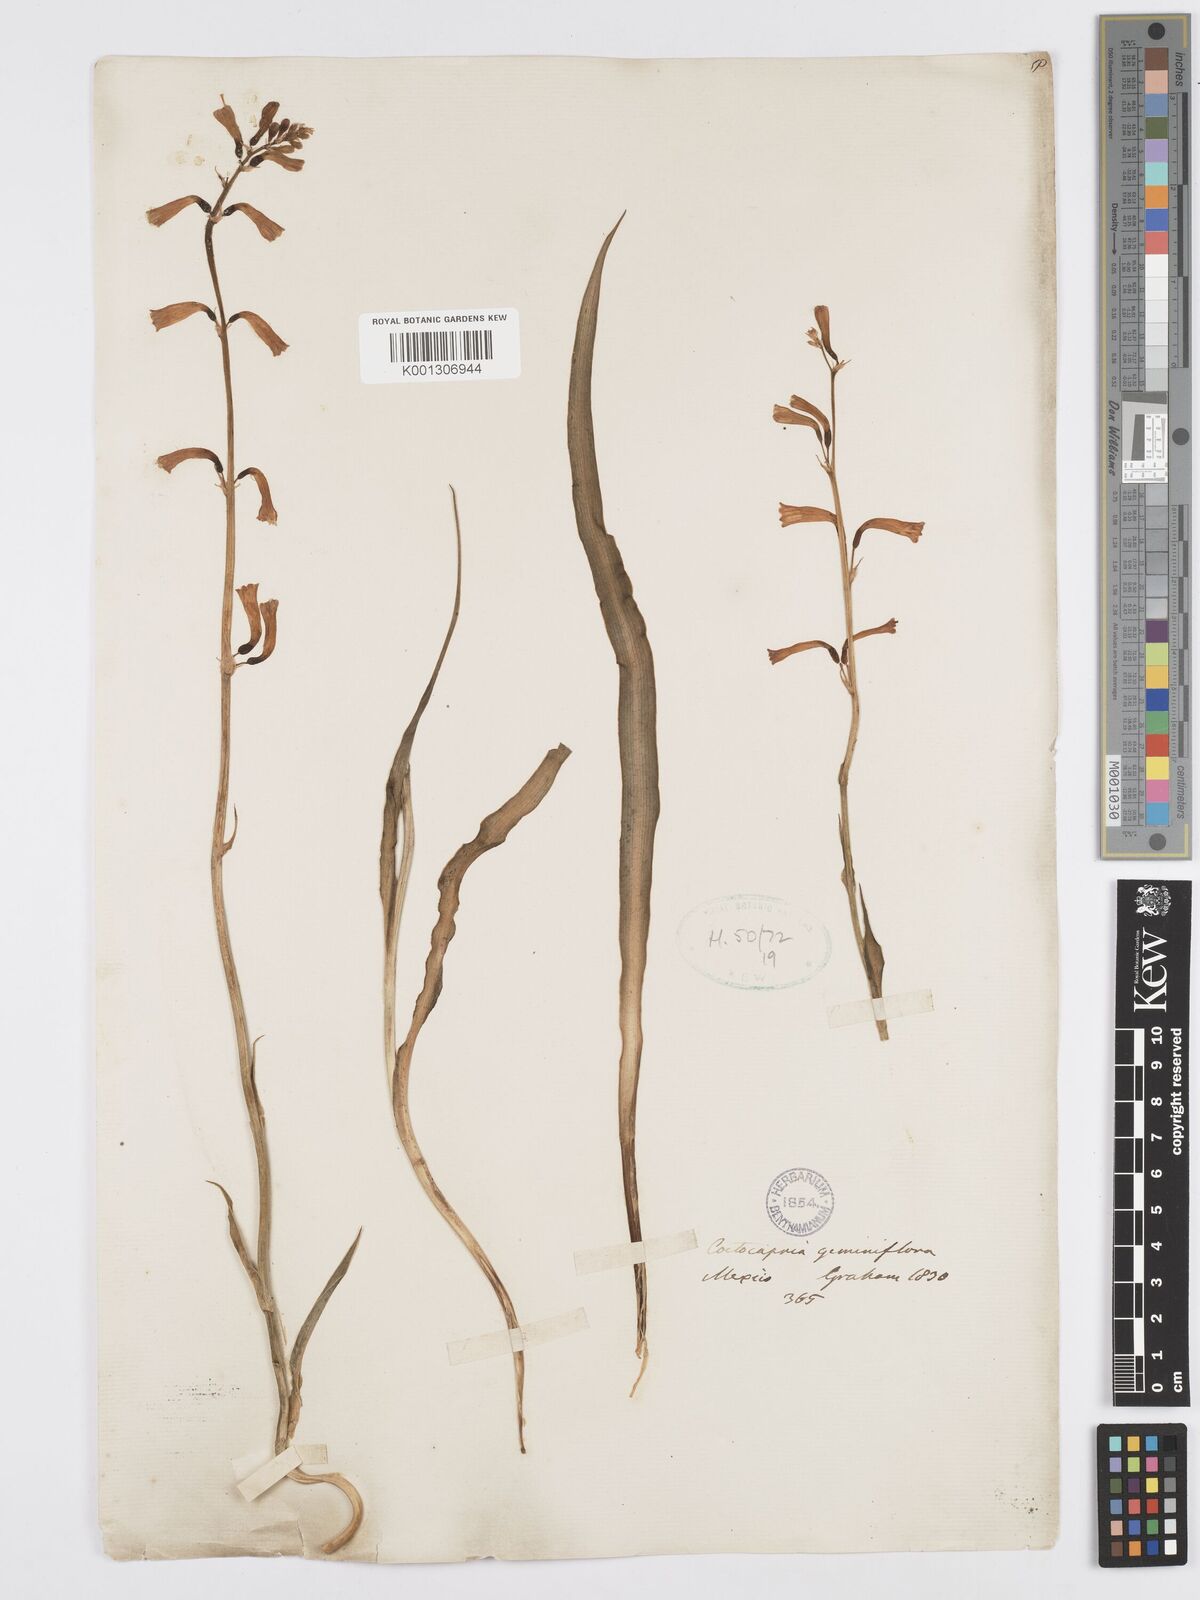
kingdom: Plantae
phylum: Tracheophyta
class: Liliopsida
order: Asparagales
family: Asparagaceae
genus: Agave
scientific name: Agave coetocapnia
